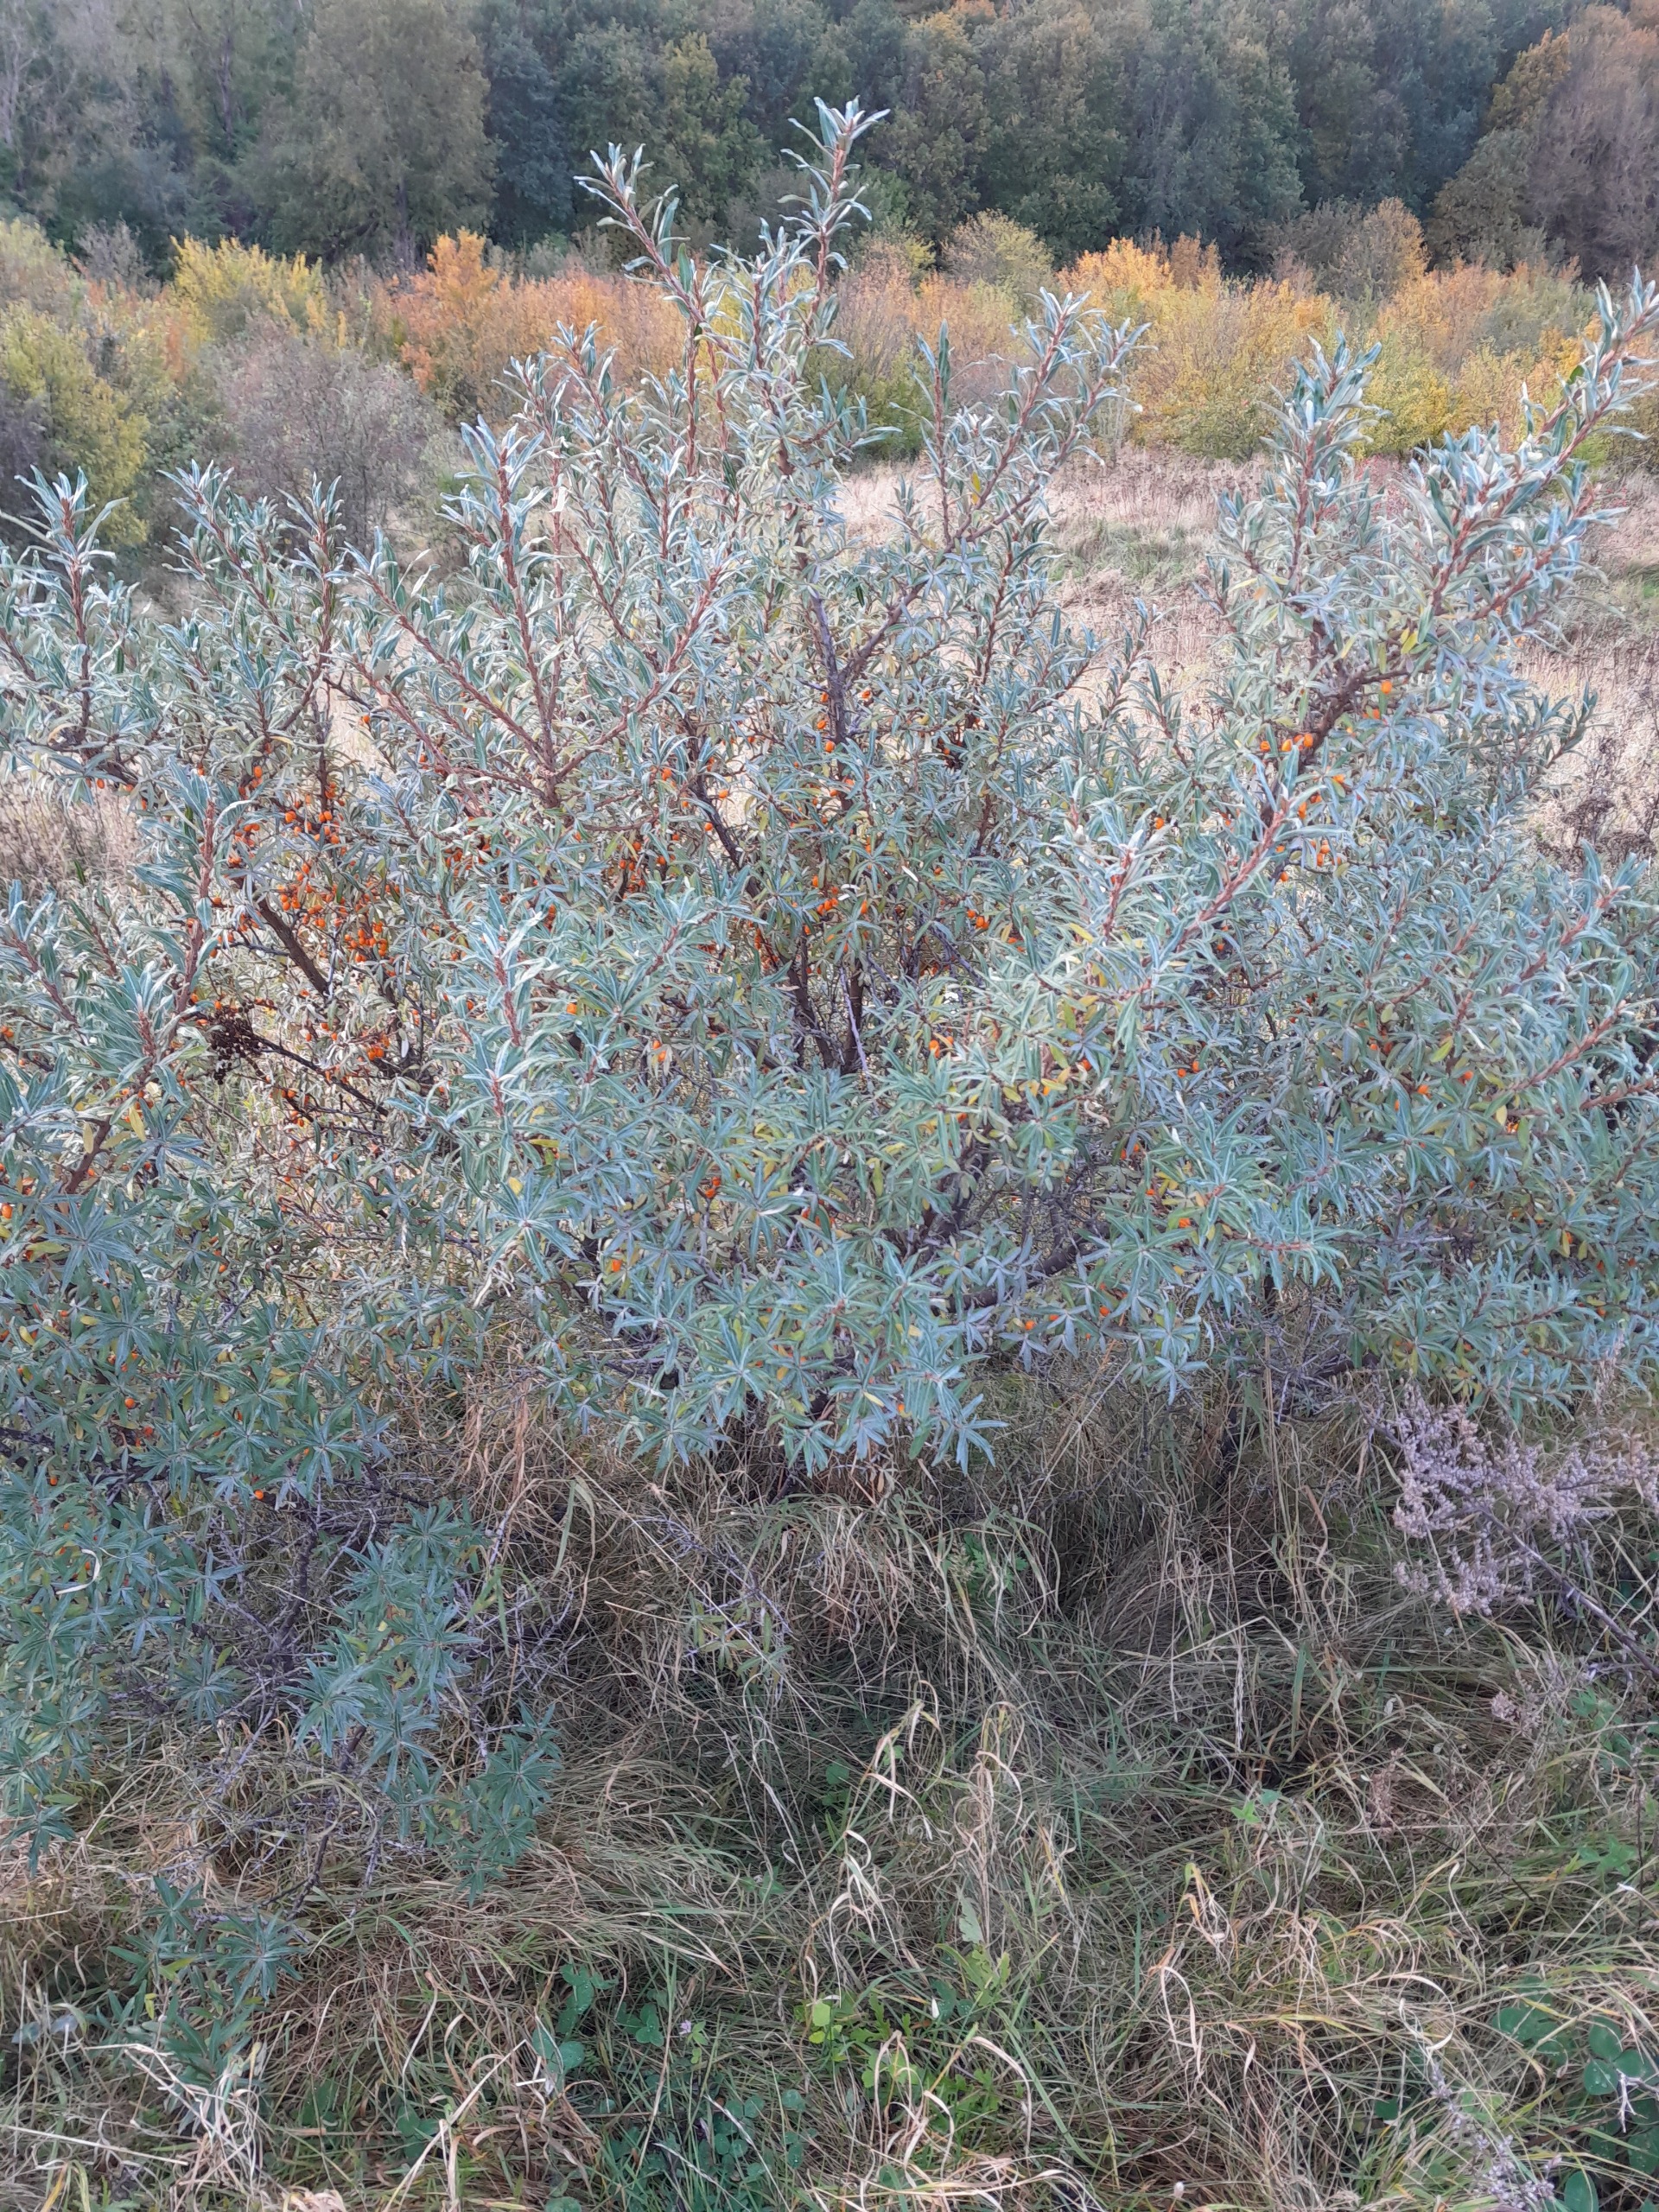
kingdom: Plantae
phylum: Tracheophyta
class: Magnoliopsida
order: Rosales
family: Elaeagnaceae
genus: Hippophae
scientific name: Hippophae rhamnoides
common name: Havtorn
